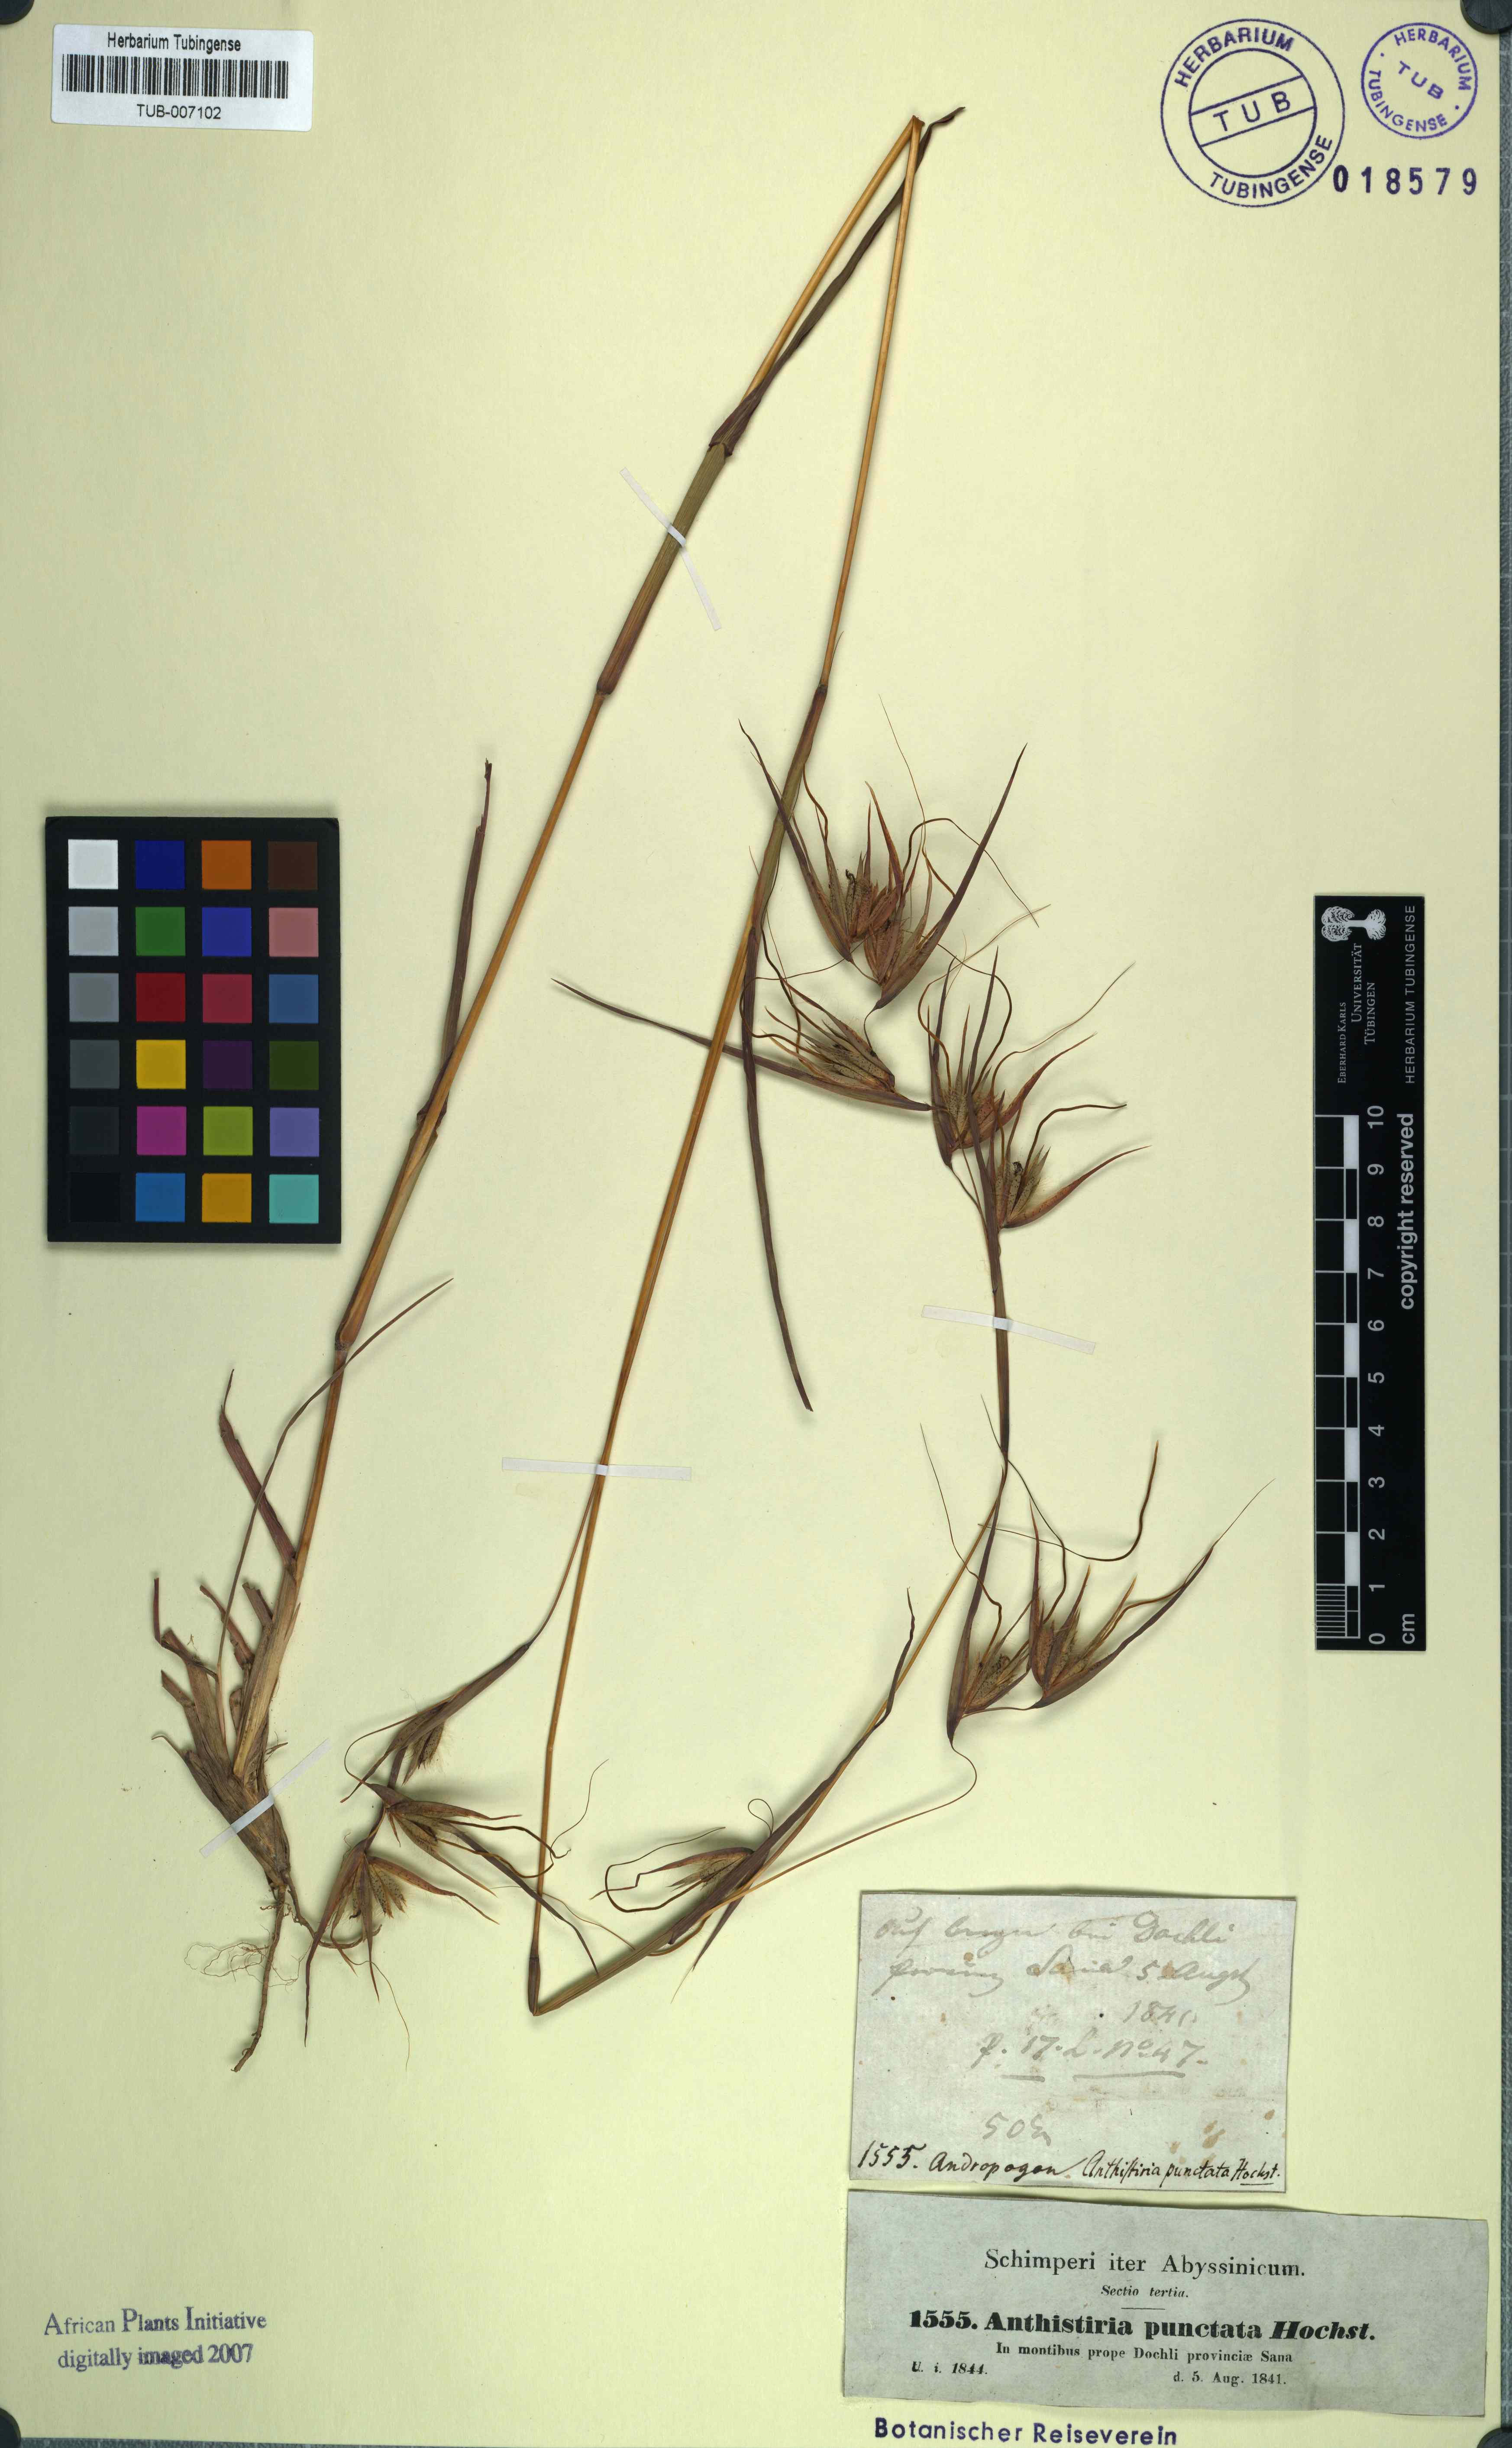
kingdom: Plantae
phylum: Tracheophyta
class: Liliopsida
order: Poales
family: Poaceae
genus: Themeda
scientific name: Themeda triandra
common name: Kangaroo grass
